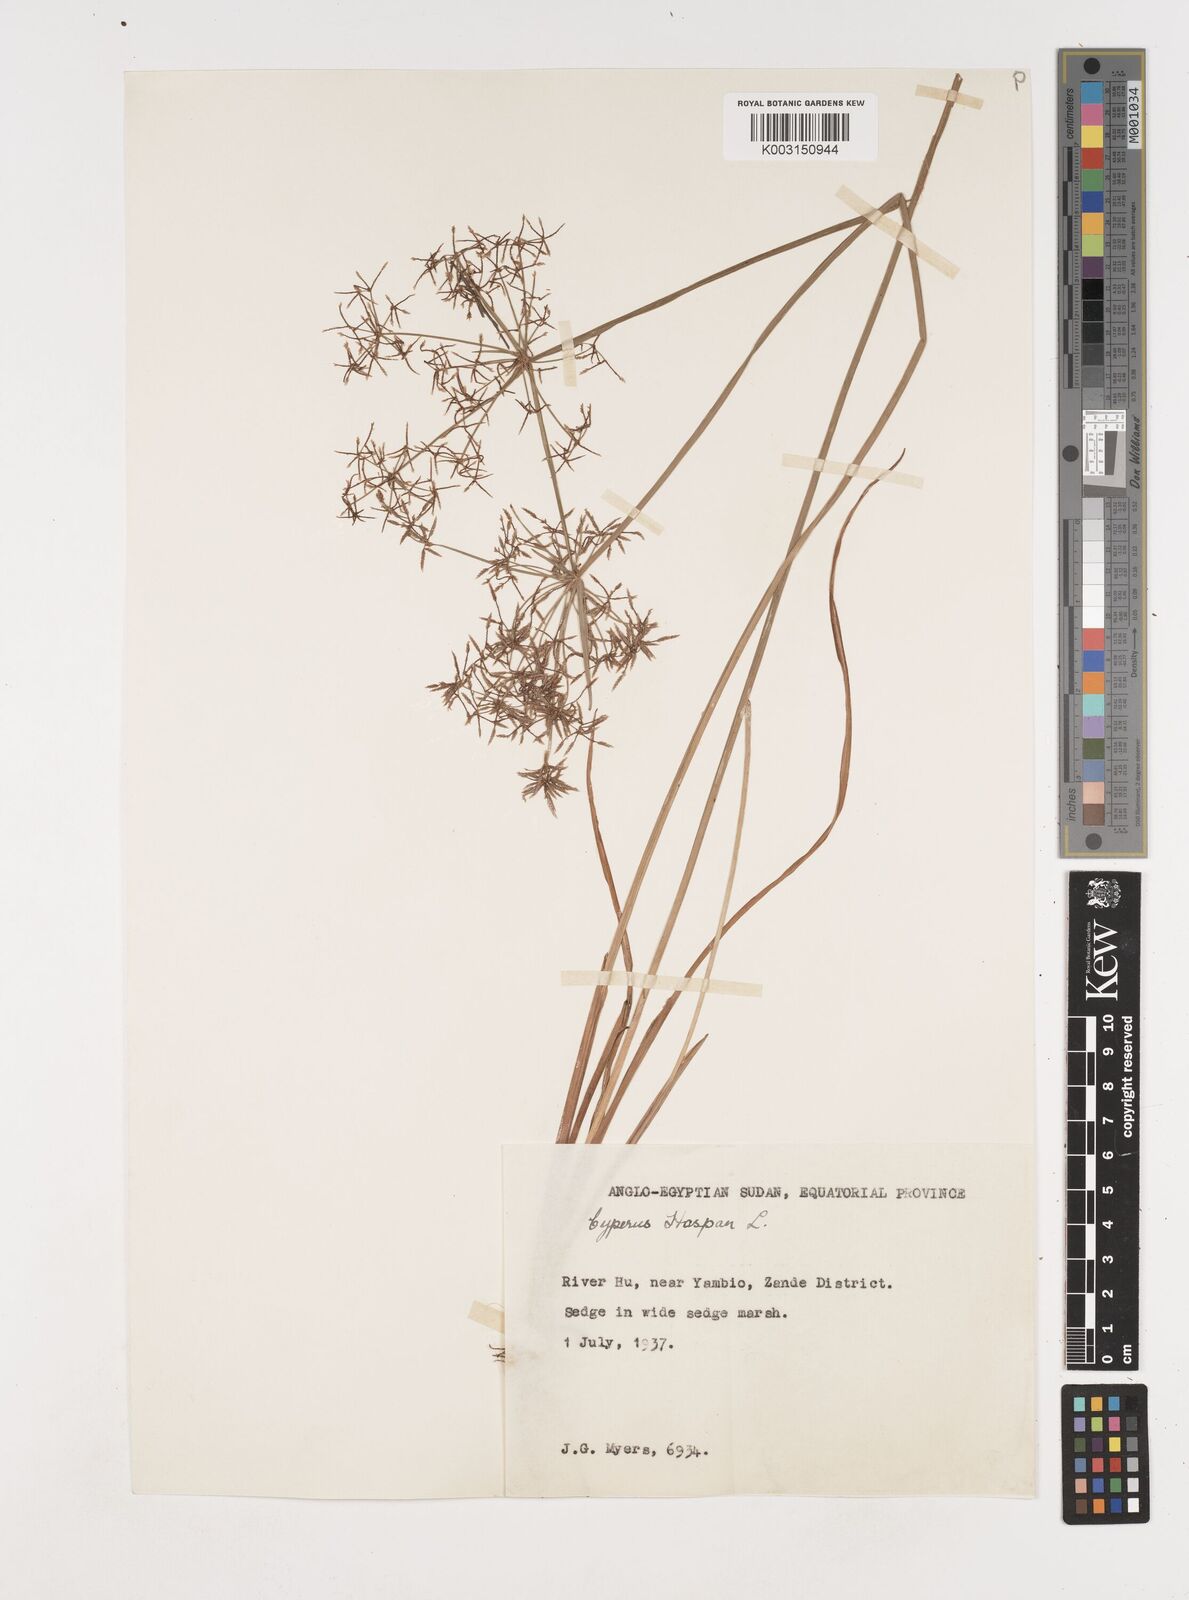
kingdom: Plantae
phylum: Tracheophyta
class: Liliopsida
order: Poales
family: Cyperaceae
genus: Cyperus
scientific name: Cyperus haspan
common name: Haspan flatsedge
